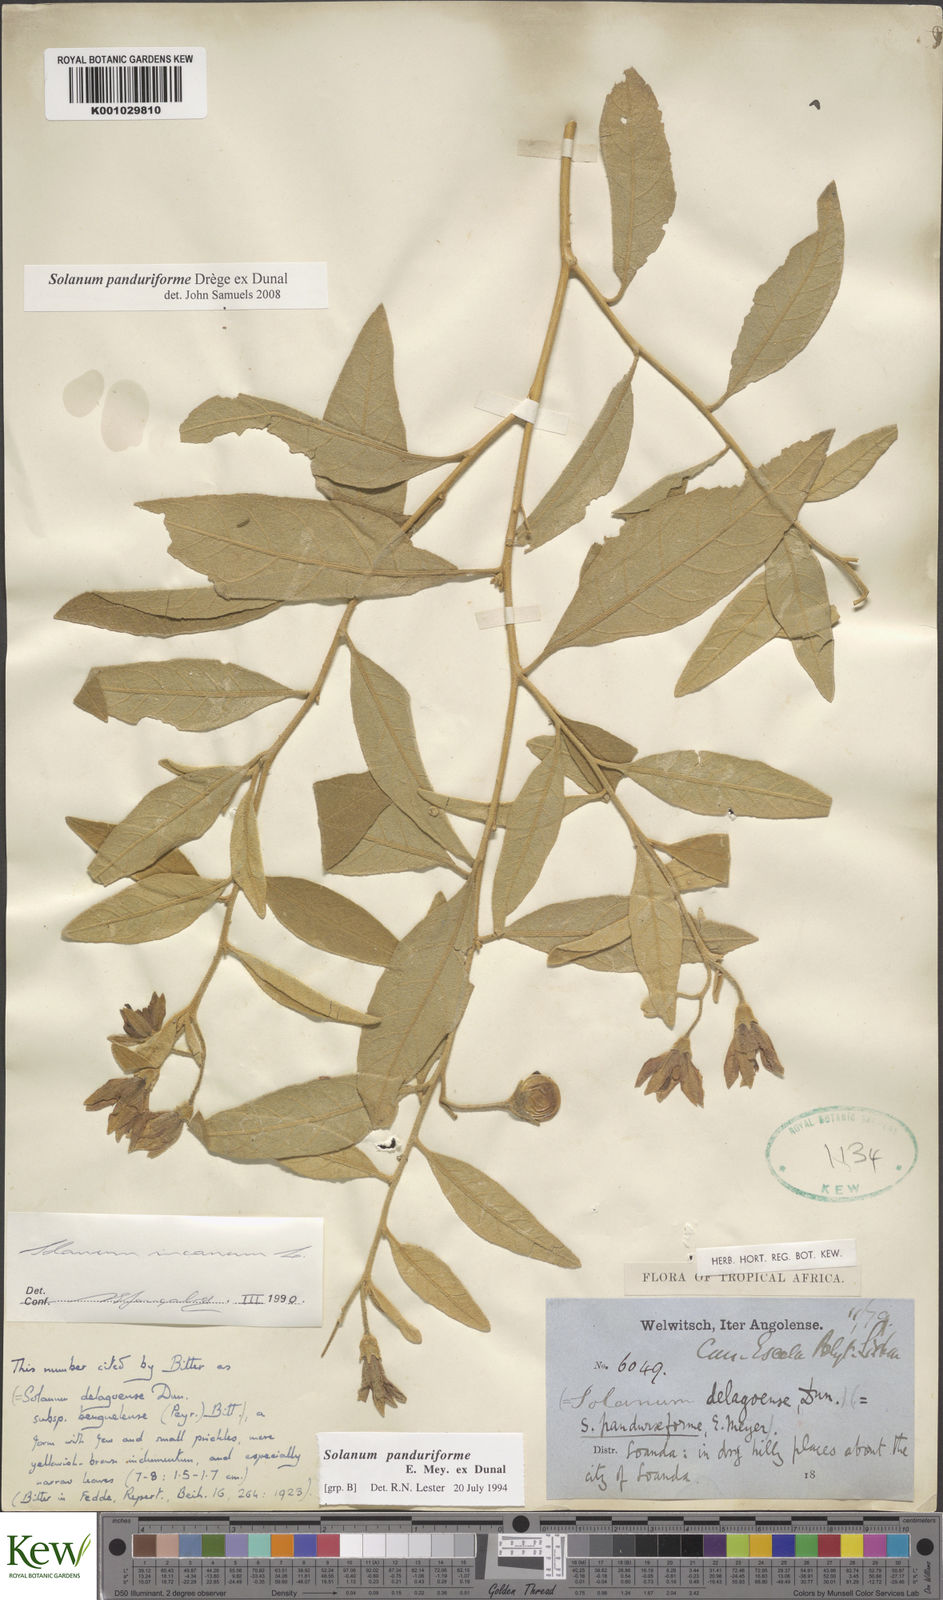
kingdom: Plantae
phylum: Tracheophyta
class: Magnoliopsida
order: Solanales
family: Solanaceae
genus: Solanum
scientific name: Solanum campylacanthum
